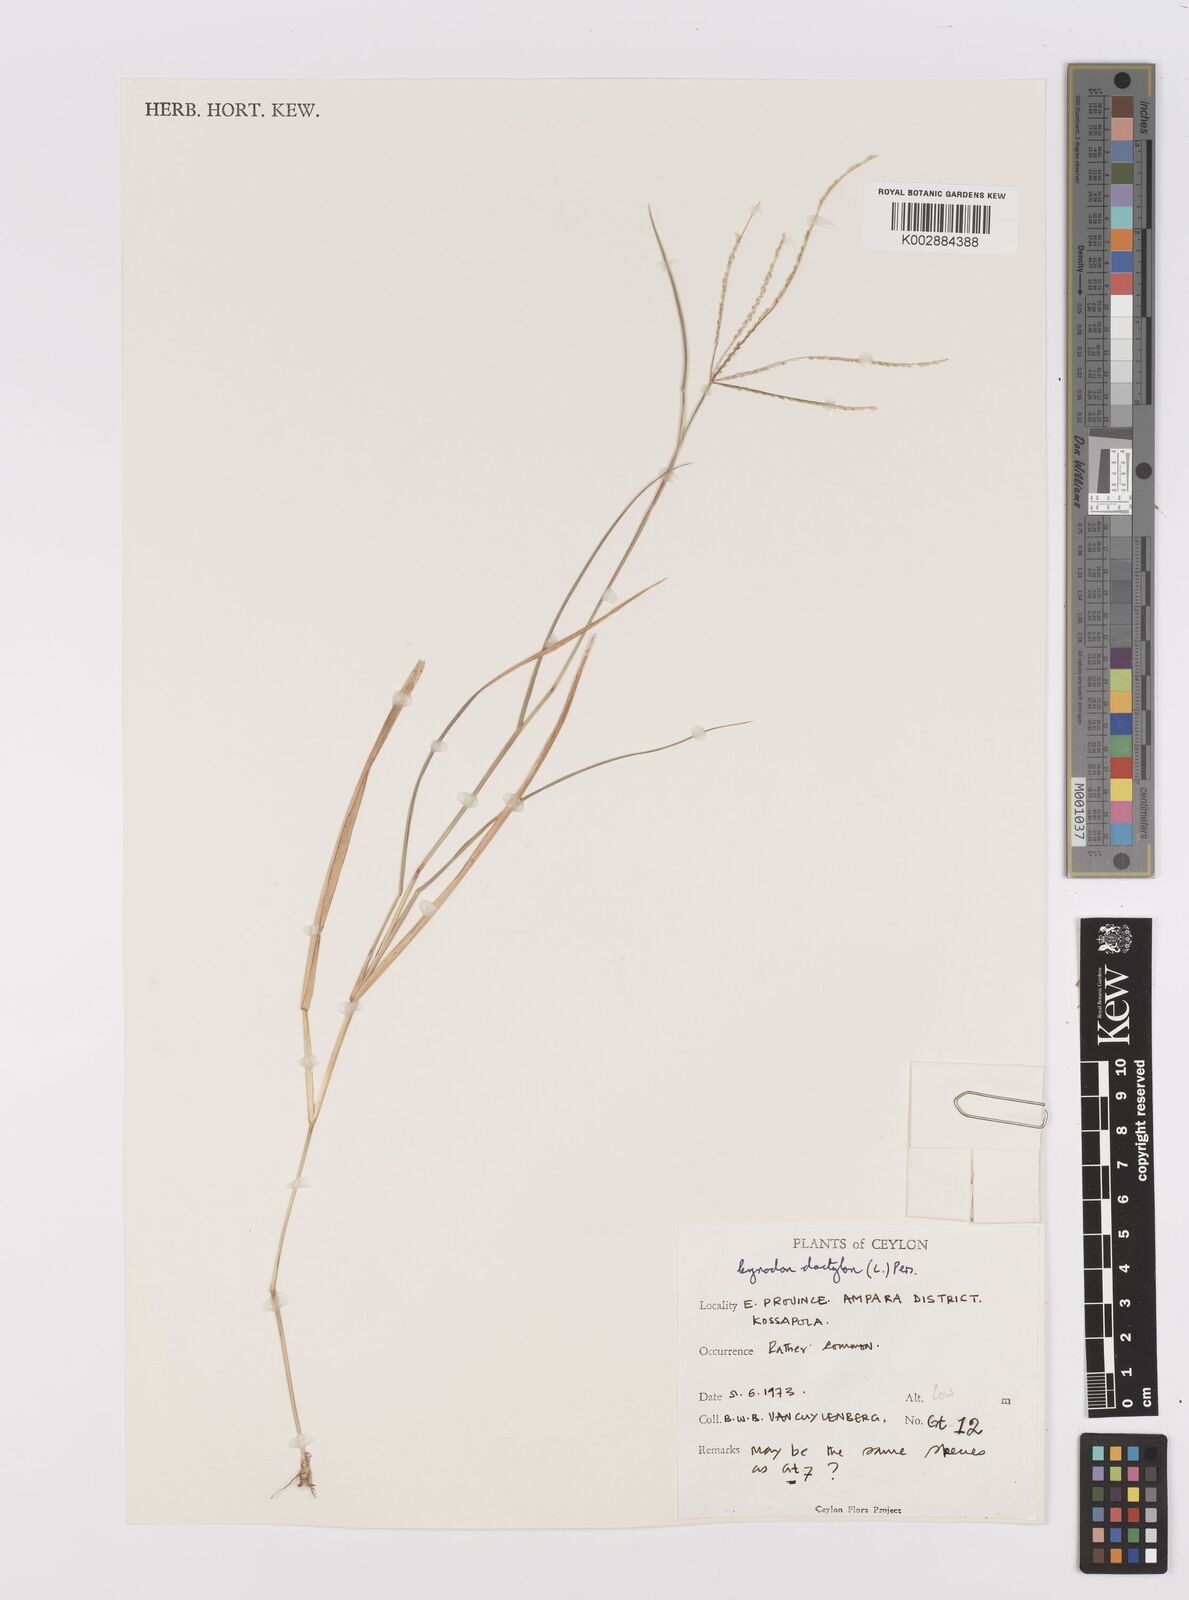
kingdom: Plantae
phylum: Tracheophyta
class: Liliopsida
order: Poales
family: Poaceae
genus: Cynodon
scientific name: Cynodon dactylon
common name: Bermuda grass
